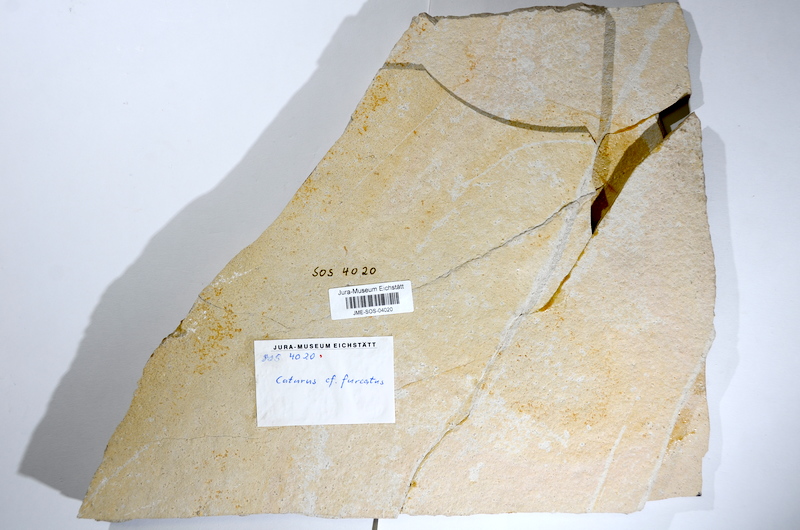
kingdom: Animalia
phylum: Chordata
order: Amiiformes
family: Caturidae
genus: Caturus
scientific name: Caturus furcatus
